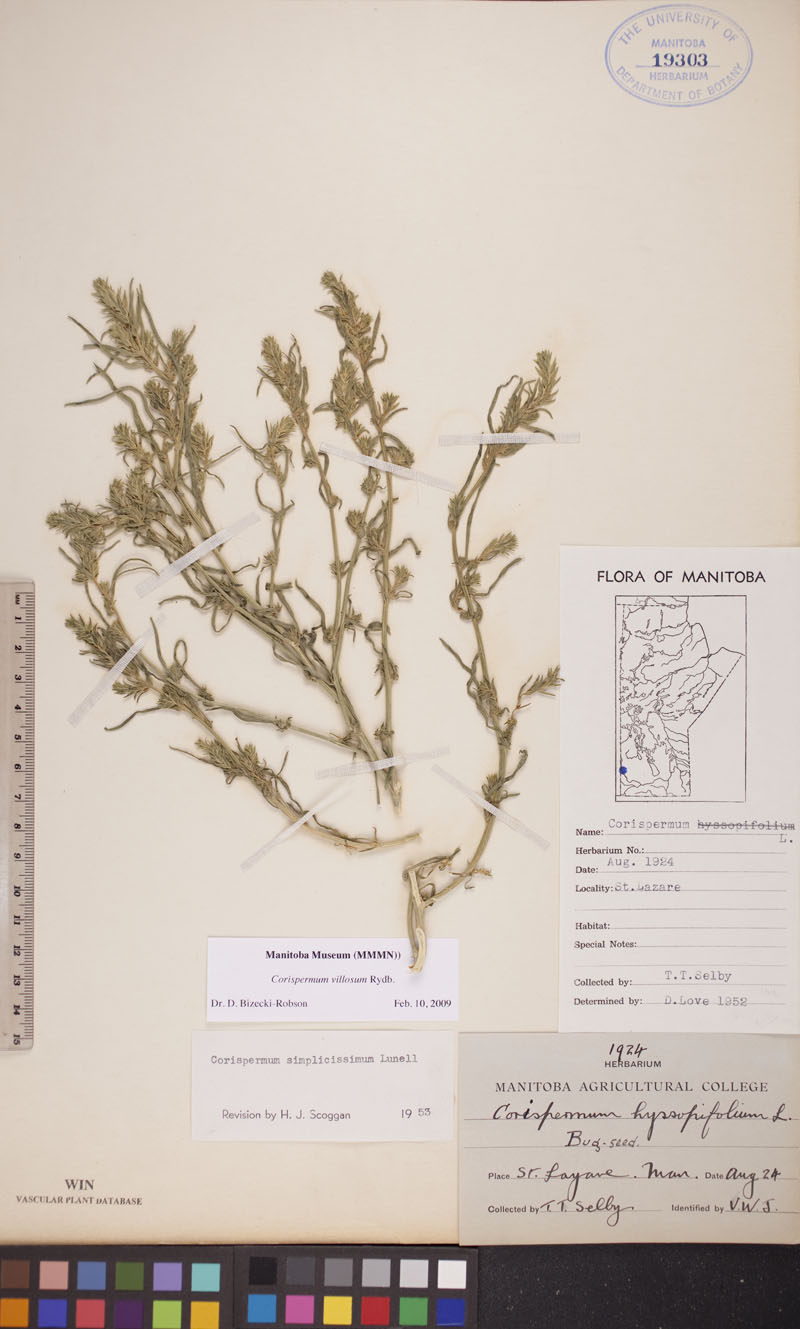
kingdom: Plantae
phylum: Tracheophyta
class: Magnoliopsida
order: Caryophyllales
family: Amaranthaceae
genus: Corispermum
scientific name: Corispermum villosum
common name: Hairy bugseed
